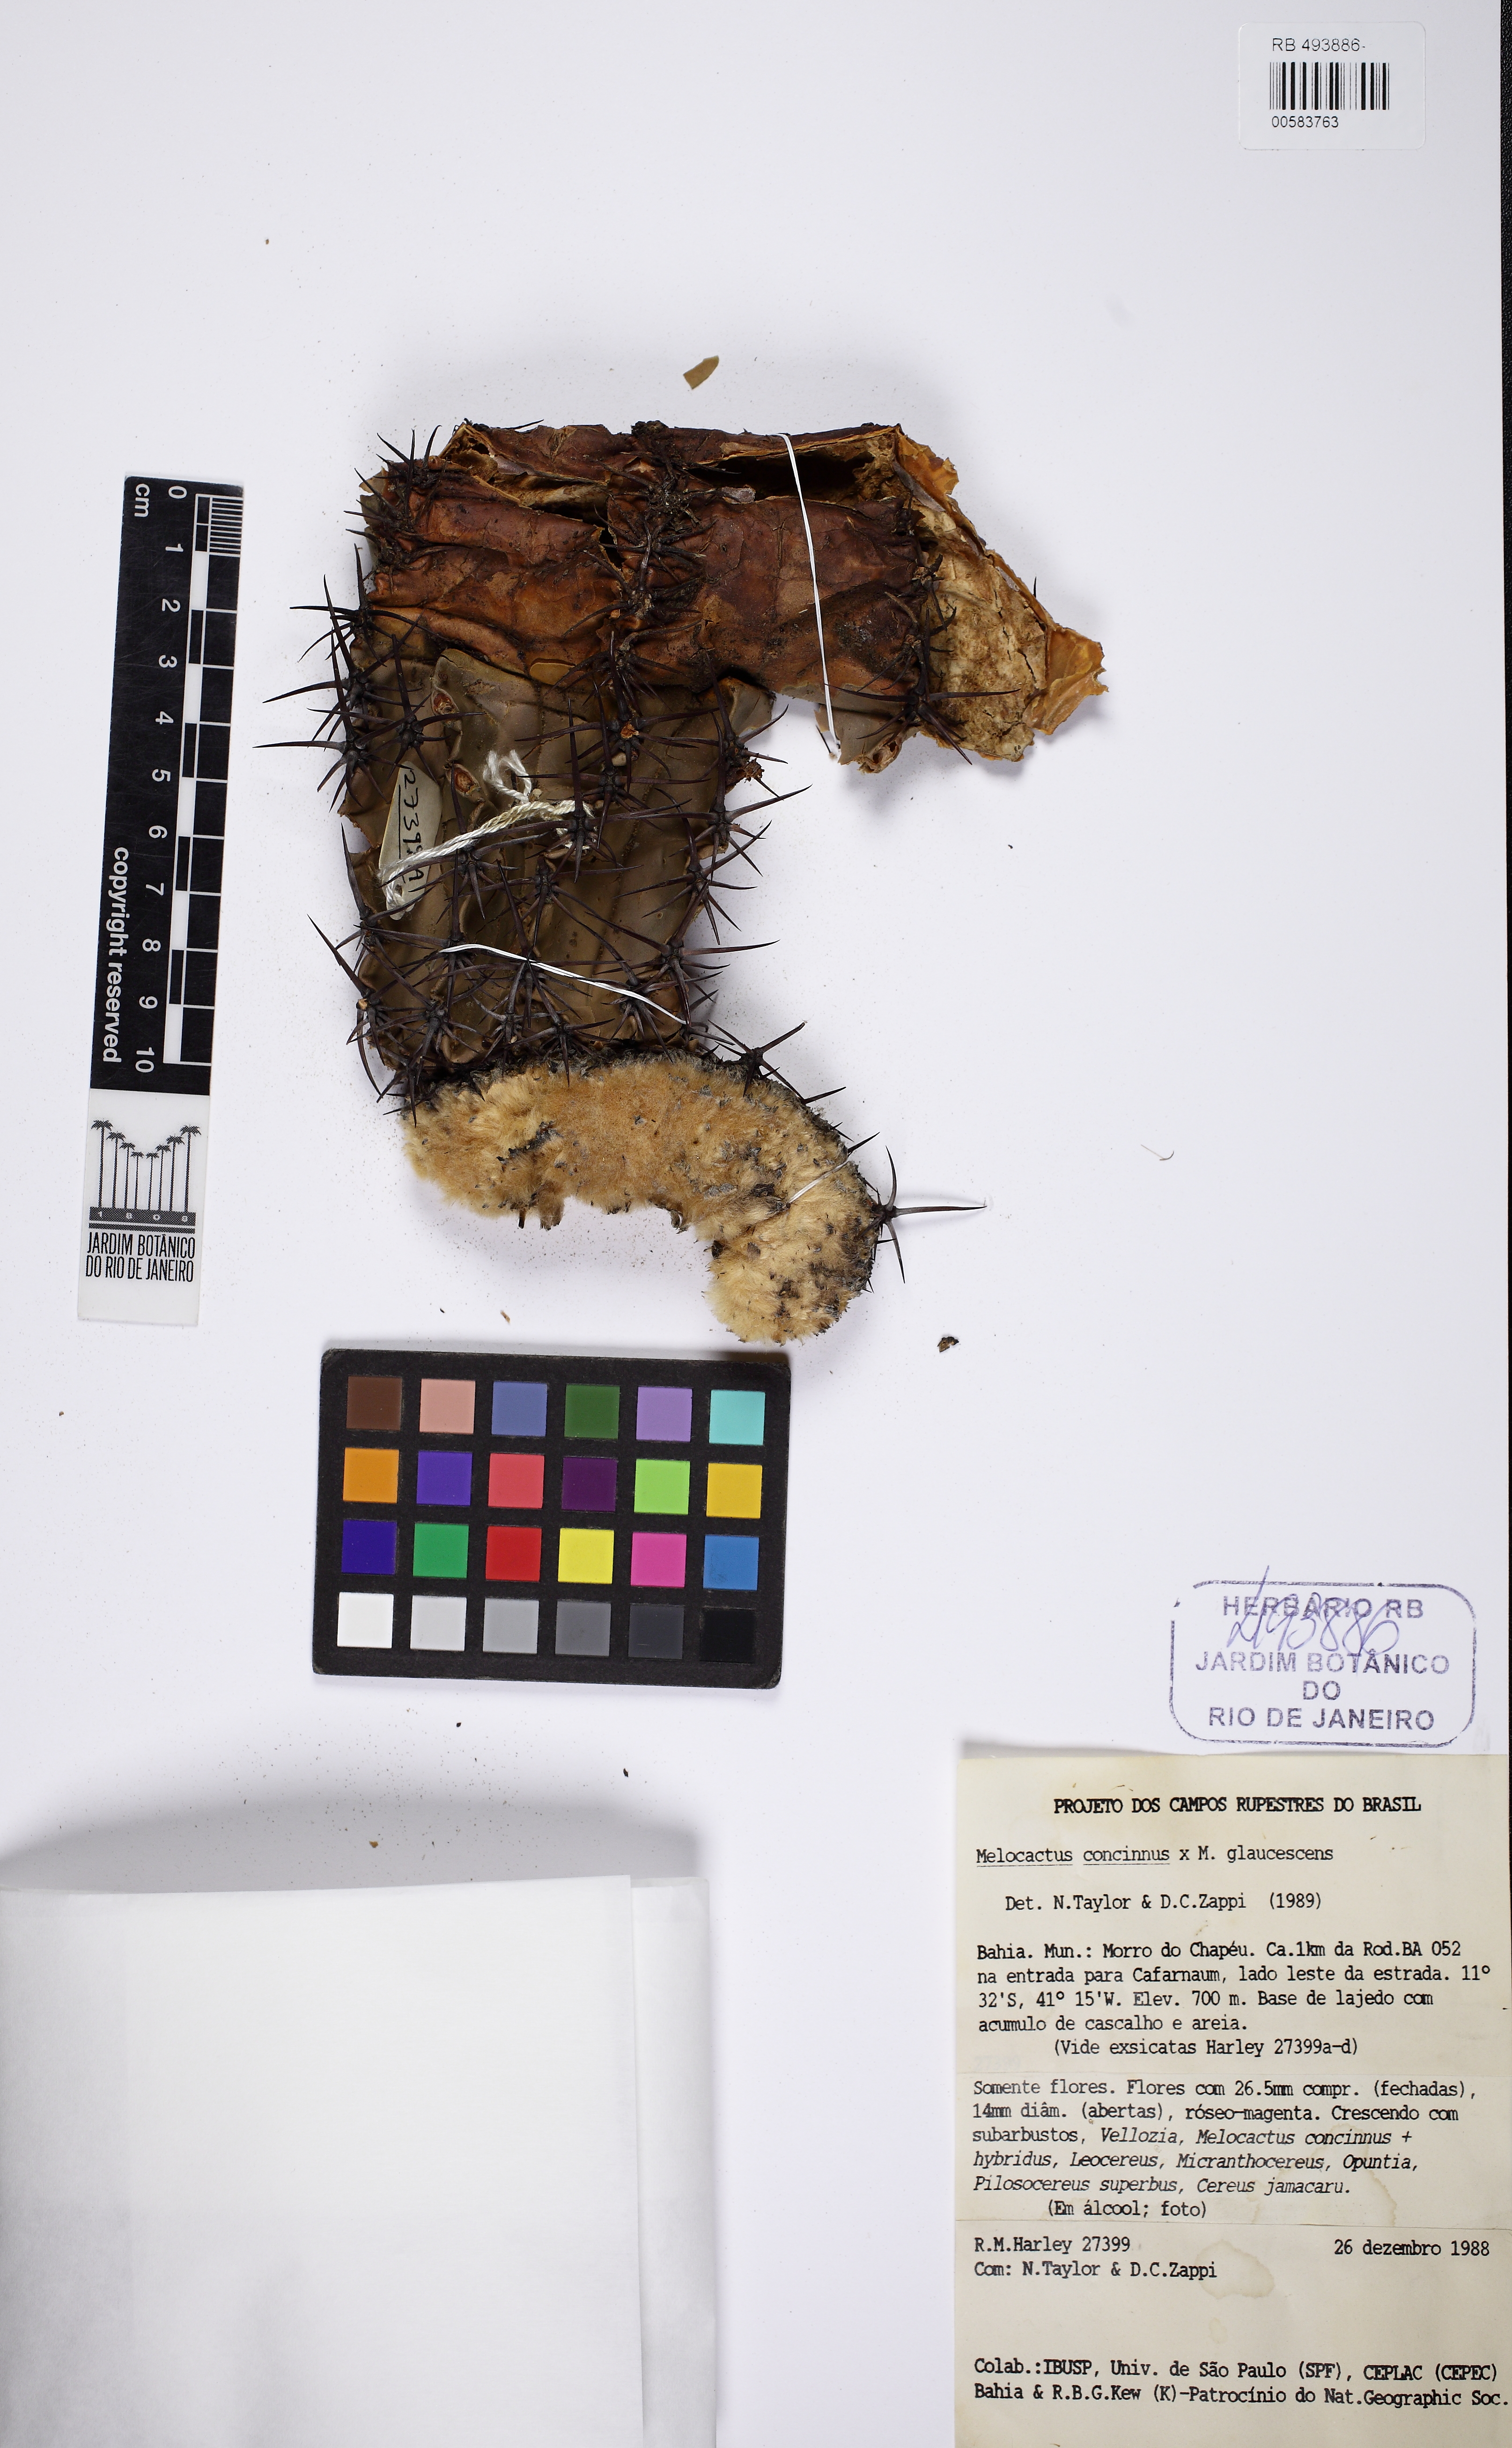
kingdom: Plantae
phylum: Tracheophyta
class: Magnoliopsida
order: Caryophyllales
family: Cactaceae
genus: Melocactus
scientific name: Melocactus pruinosus
